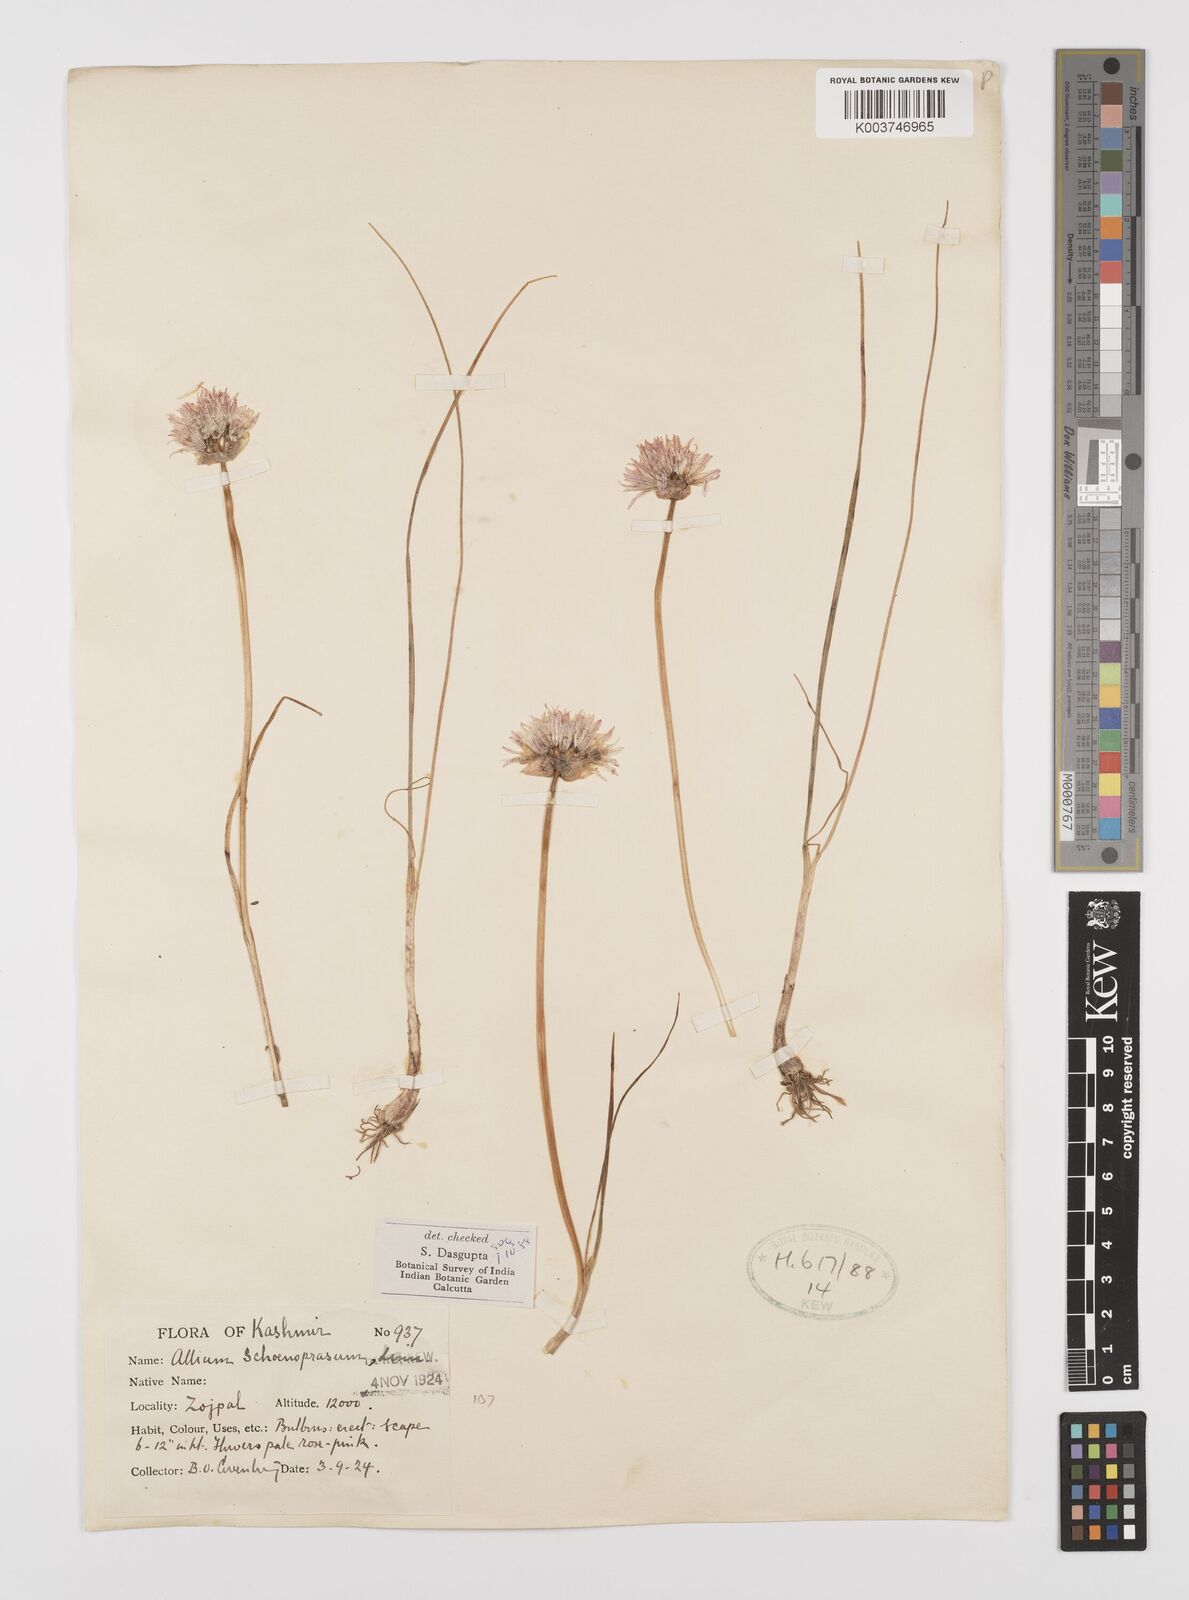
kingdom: Plantae
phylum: Tracheophyta
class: Liliopsida
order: Asparagales
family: Amaryllidaceae
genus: Allium
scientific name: Allium schoenoprasum
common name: Chives
